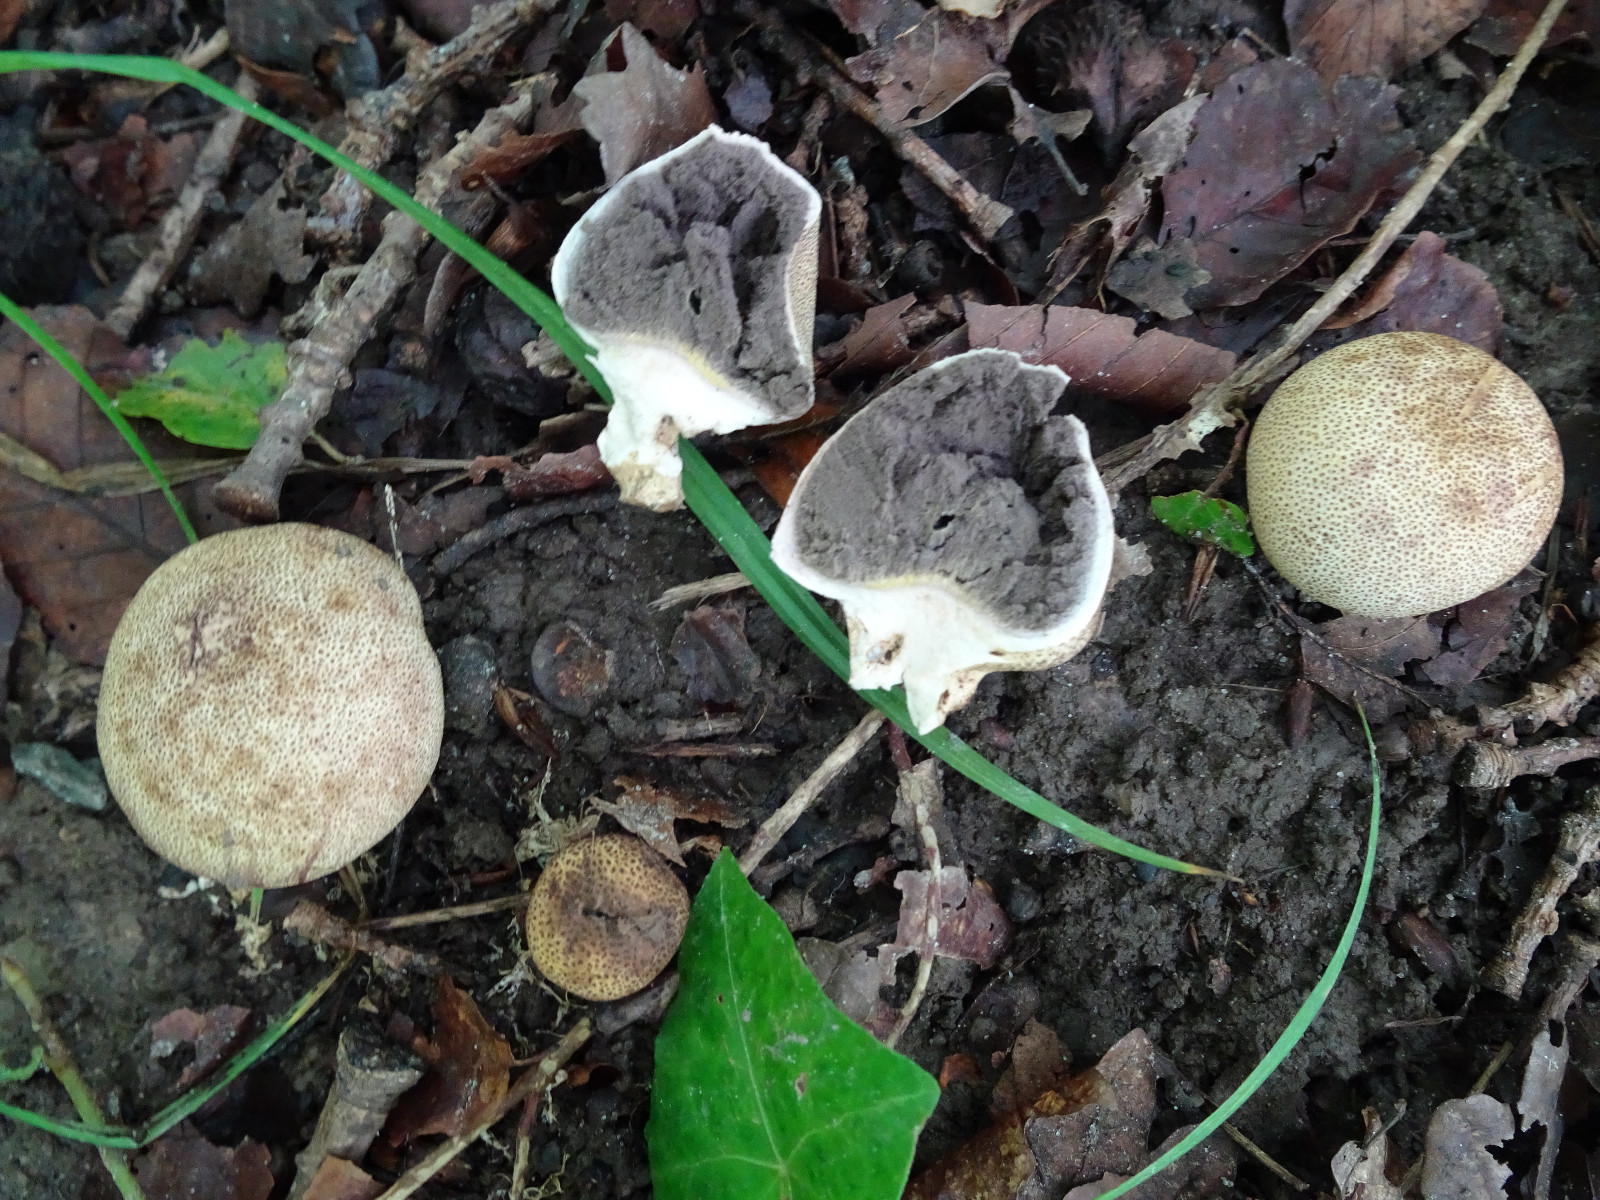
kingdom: Fungi
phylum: Basidiomycota
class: Agaricomycetes
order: Boletales
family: Sclerodermataceae
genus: Scleroderma
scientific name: Scleroderma areolatum
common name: plettet bruskbold
